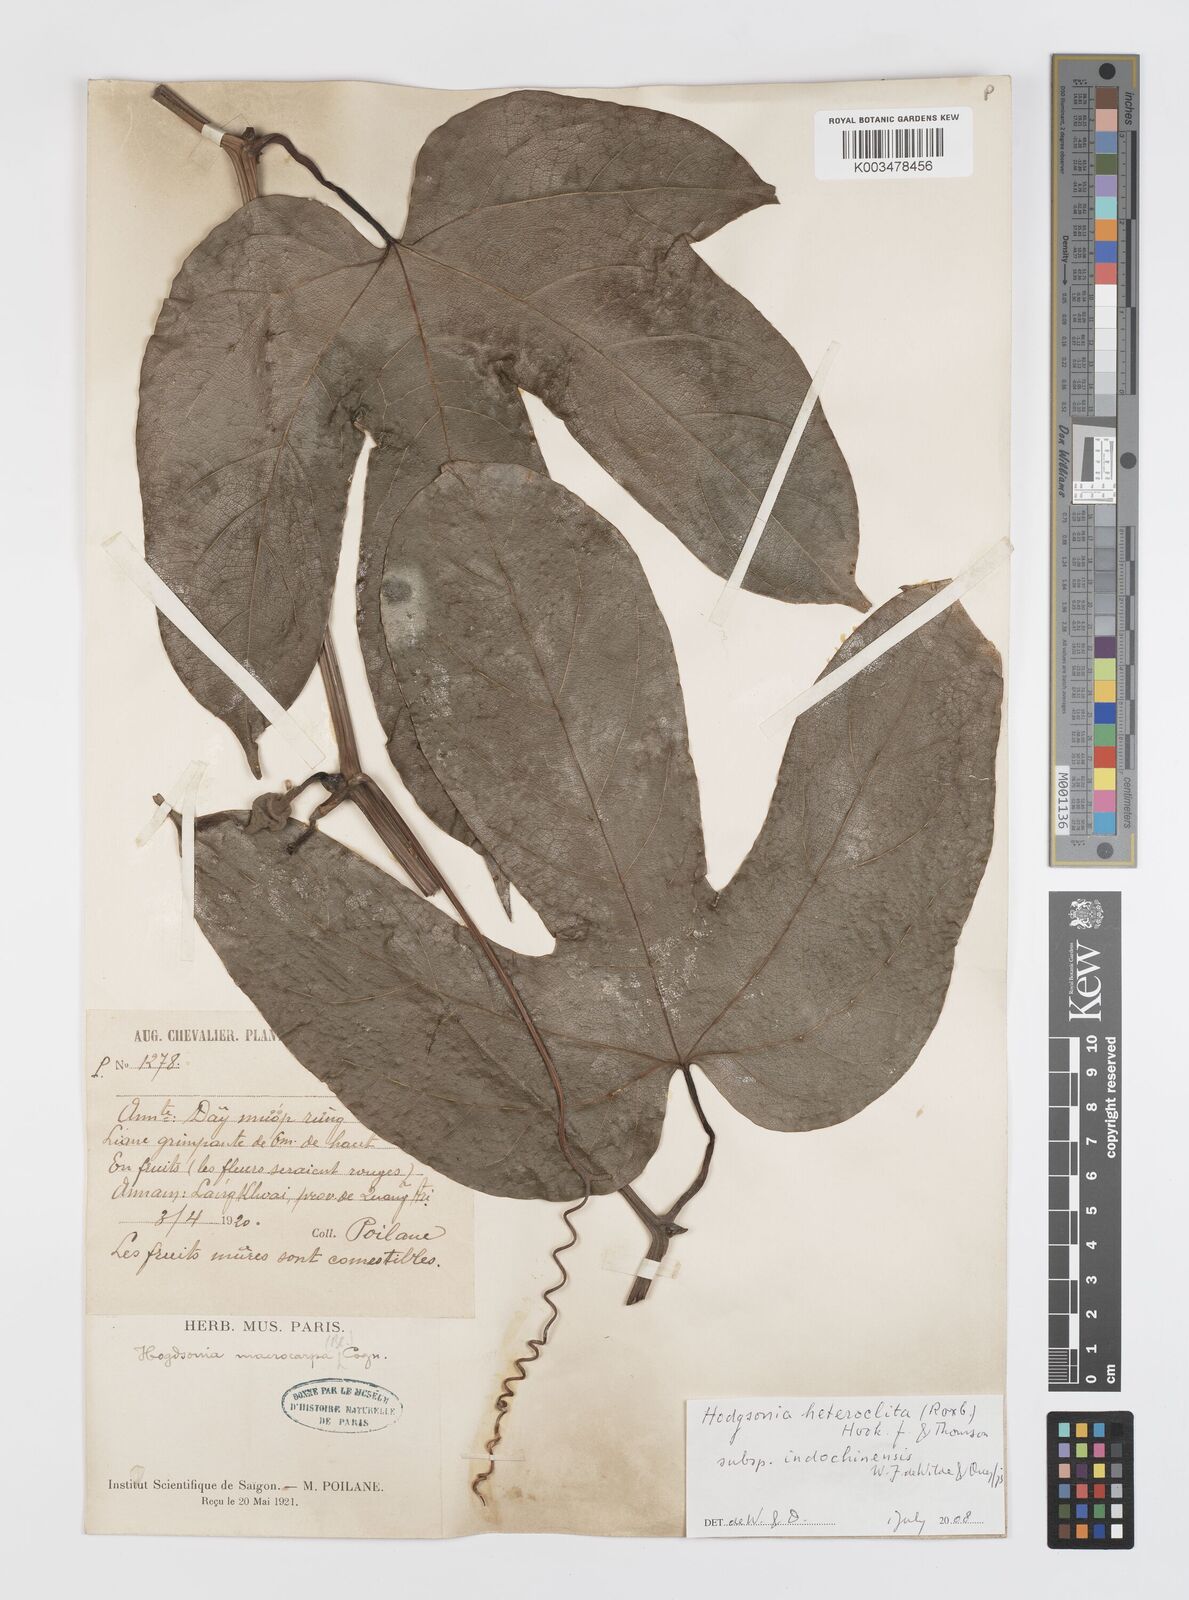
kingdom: Plantae
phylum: Tracheophyta
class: Magnoliopsida
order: Cucurbitales
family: Cucurbitaceae
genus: Hodgsonia
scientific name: Hodgsonia macrocarpa
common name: Chinese lardfruit
